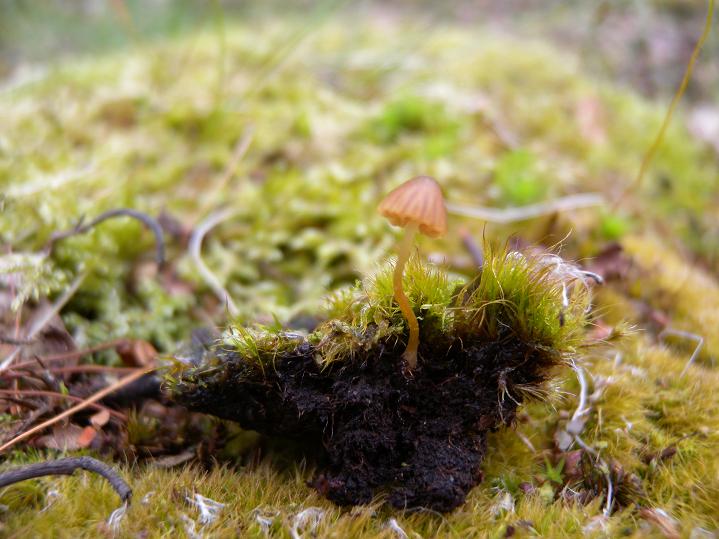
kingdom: Fungi
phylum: Basidiomycota
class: Agaricomycetes
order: Agaricales
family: Hymenogastraceae
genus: Galerina
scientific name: Galerina hypnorum
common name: mos-hjelmhat
